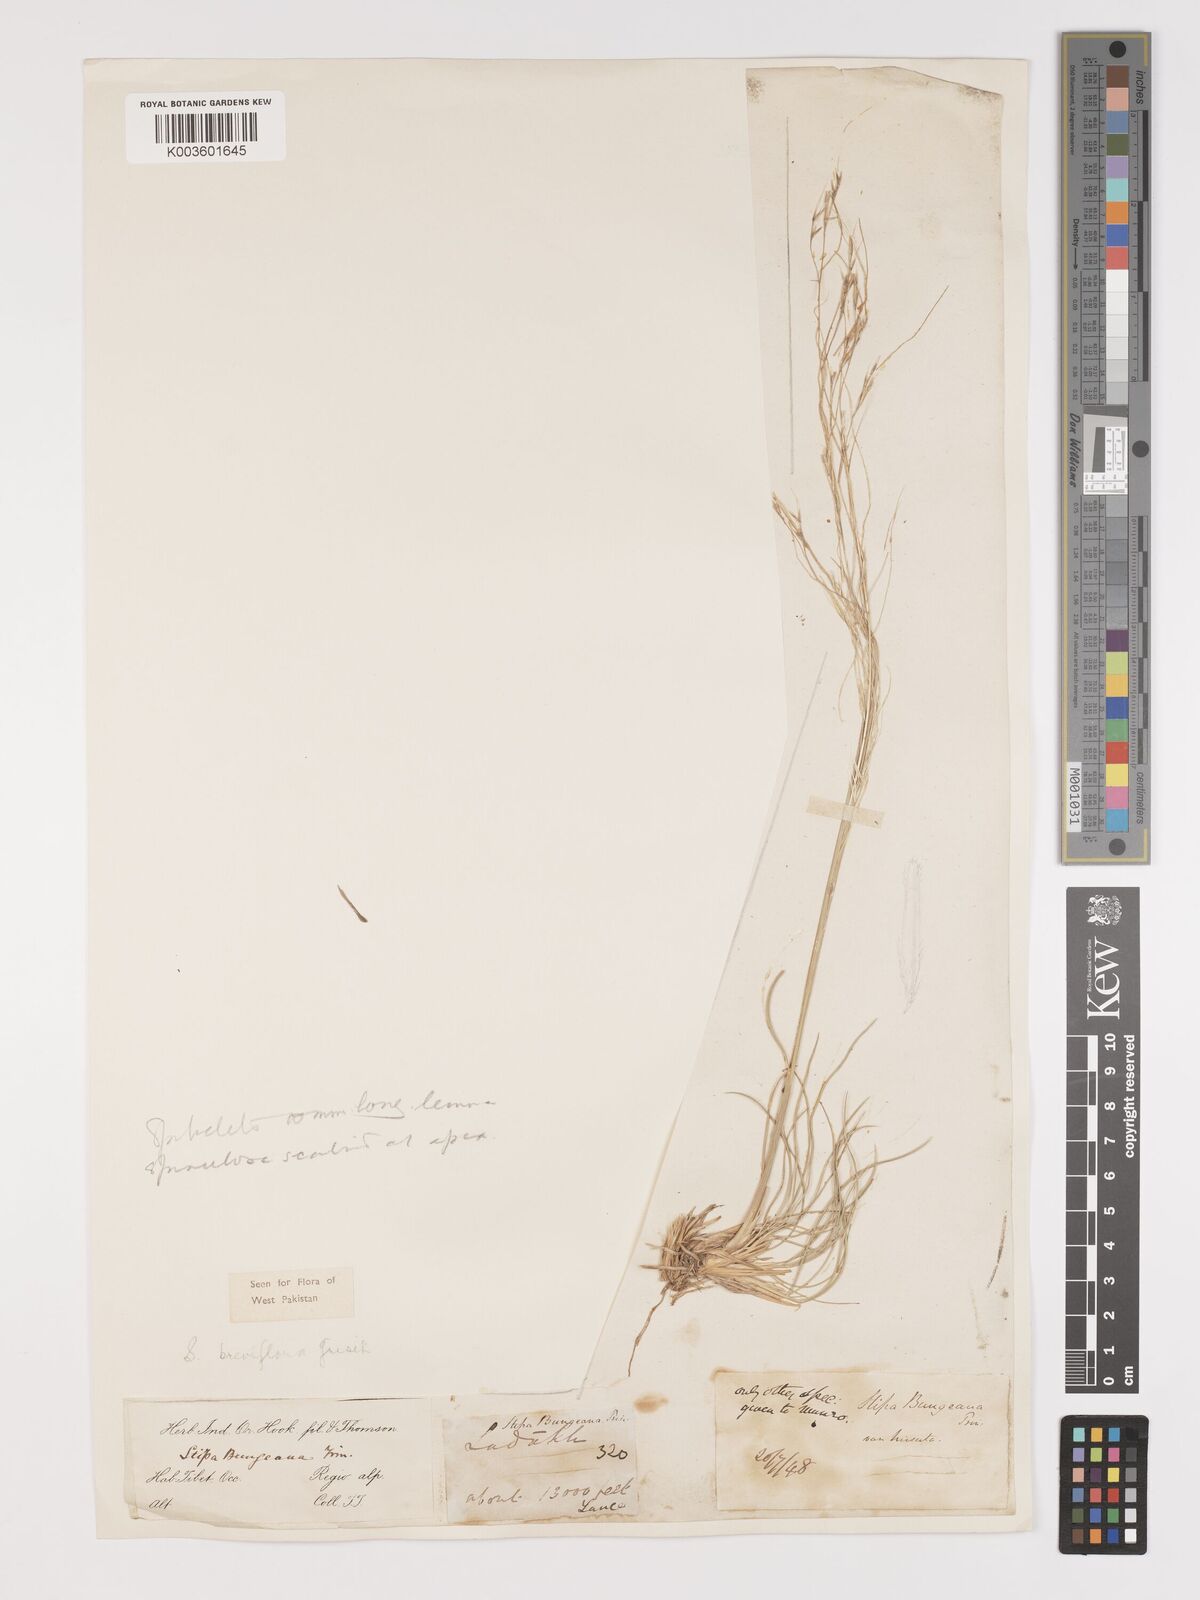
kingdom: Plantae
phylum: Tracheophyta
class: Liliopsida
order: Poales
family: Poaceae
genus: Stipa
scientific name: Stipa breviflora
